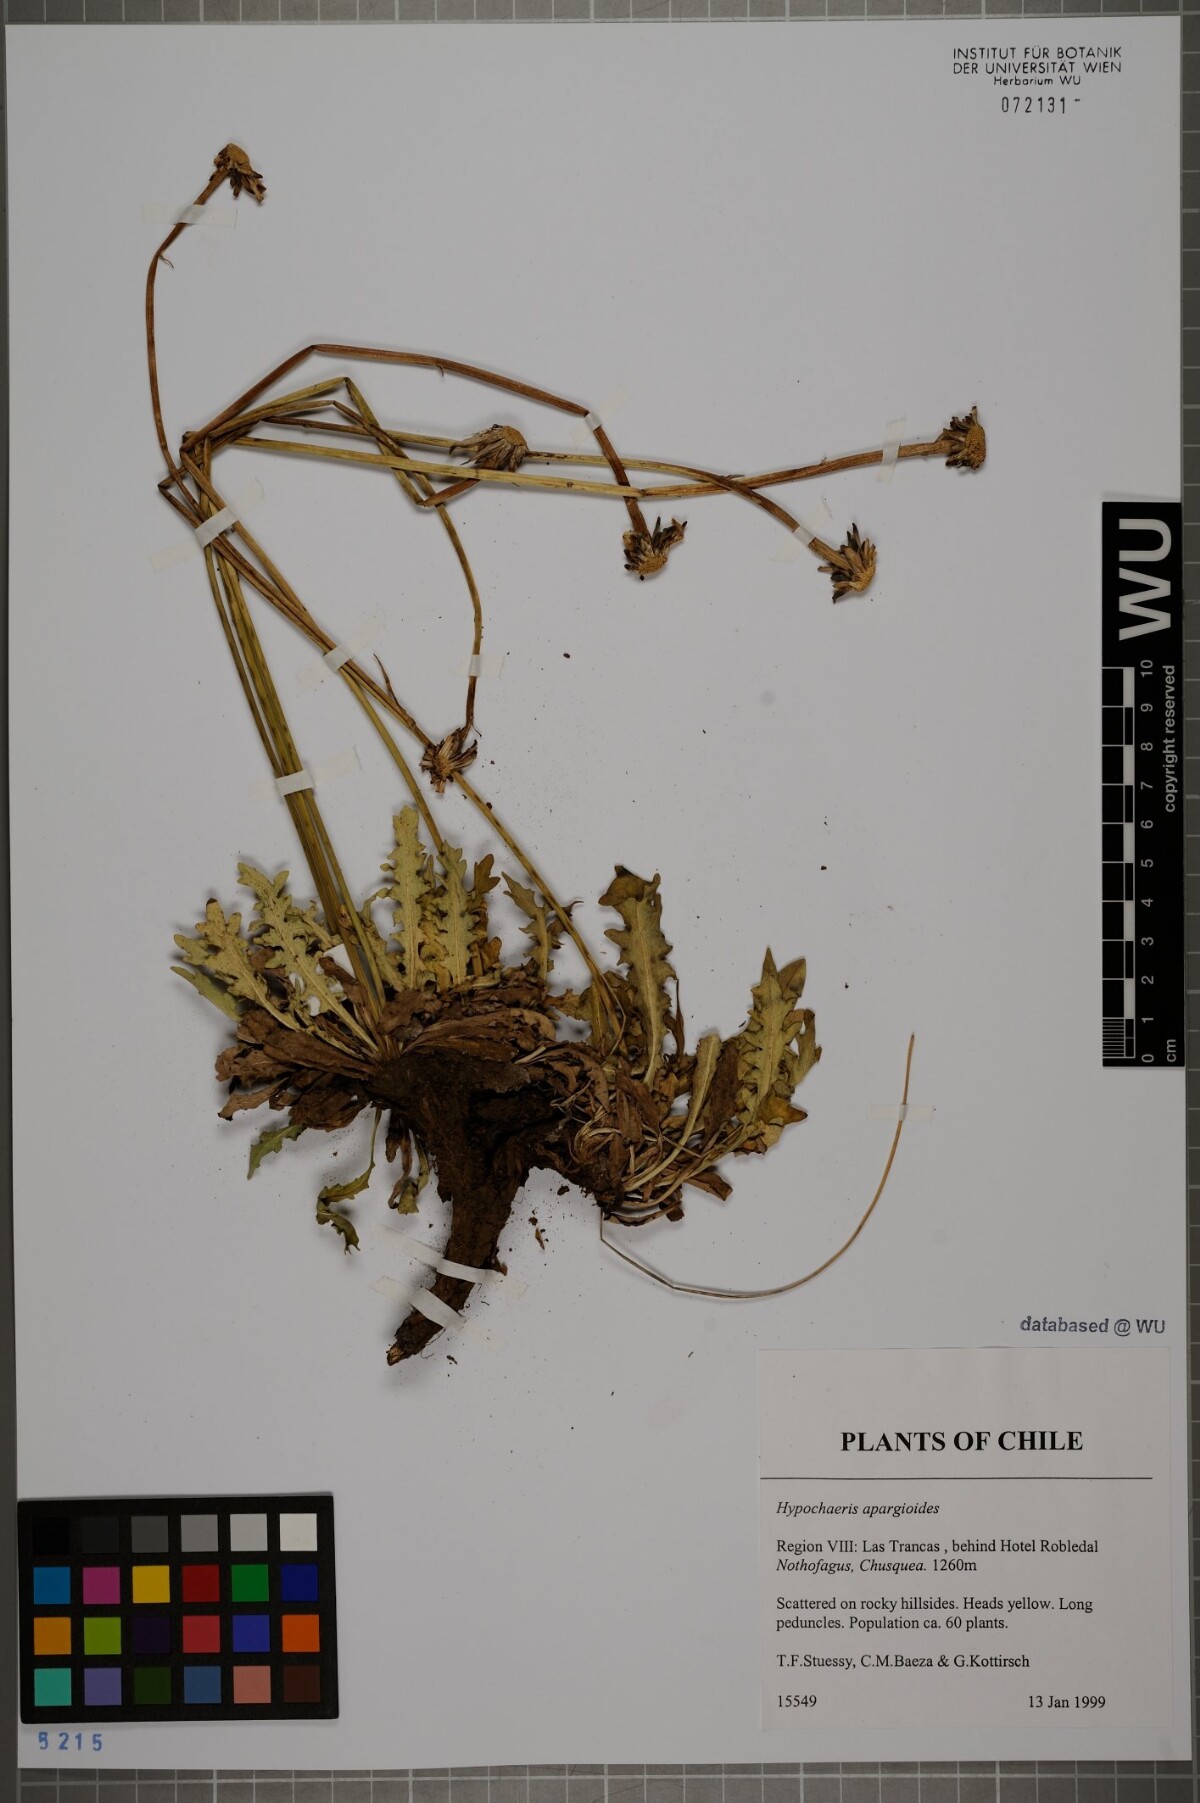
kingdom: Plantae
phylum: Tracheophyta
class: Magnoliopsida
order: Asterales
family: Asteraceae
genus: Hypochaeris
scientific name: Hypochaeris apargioides
